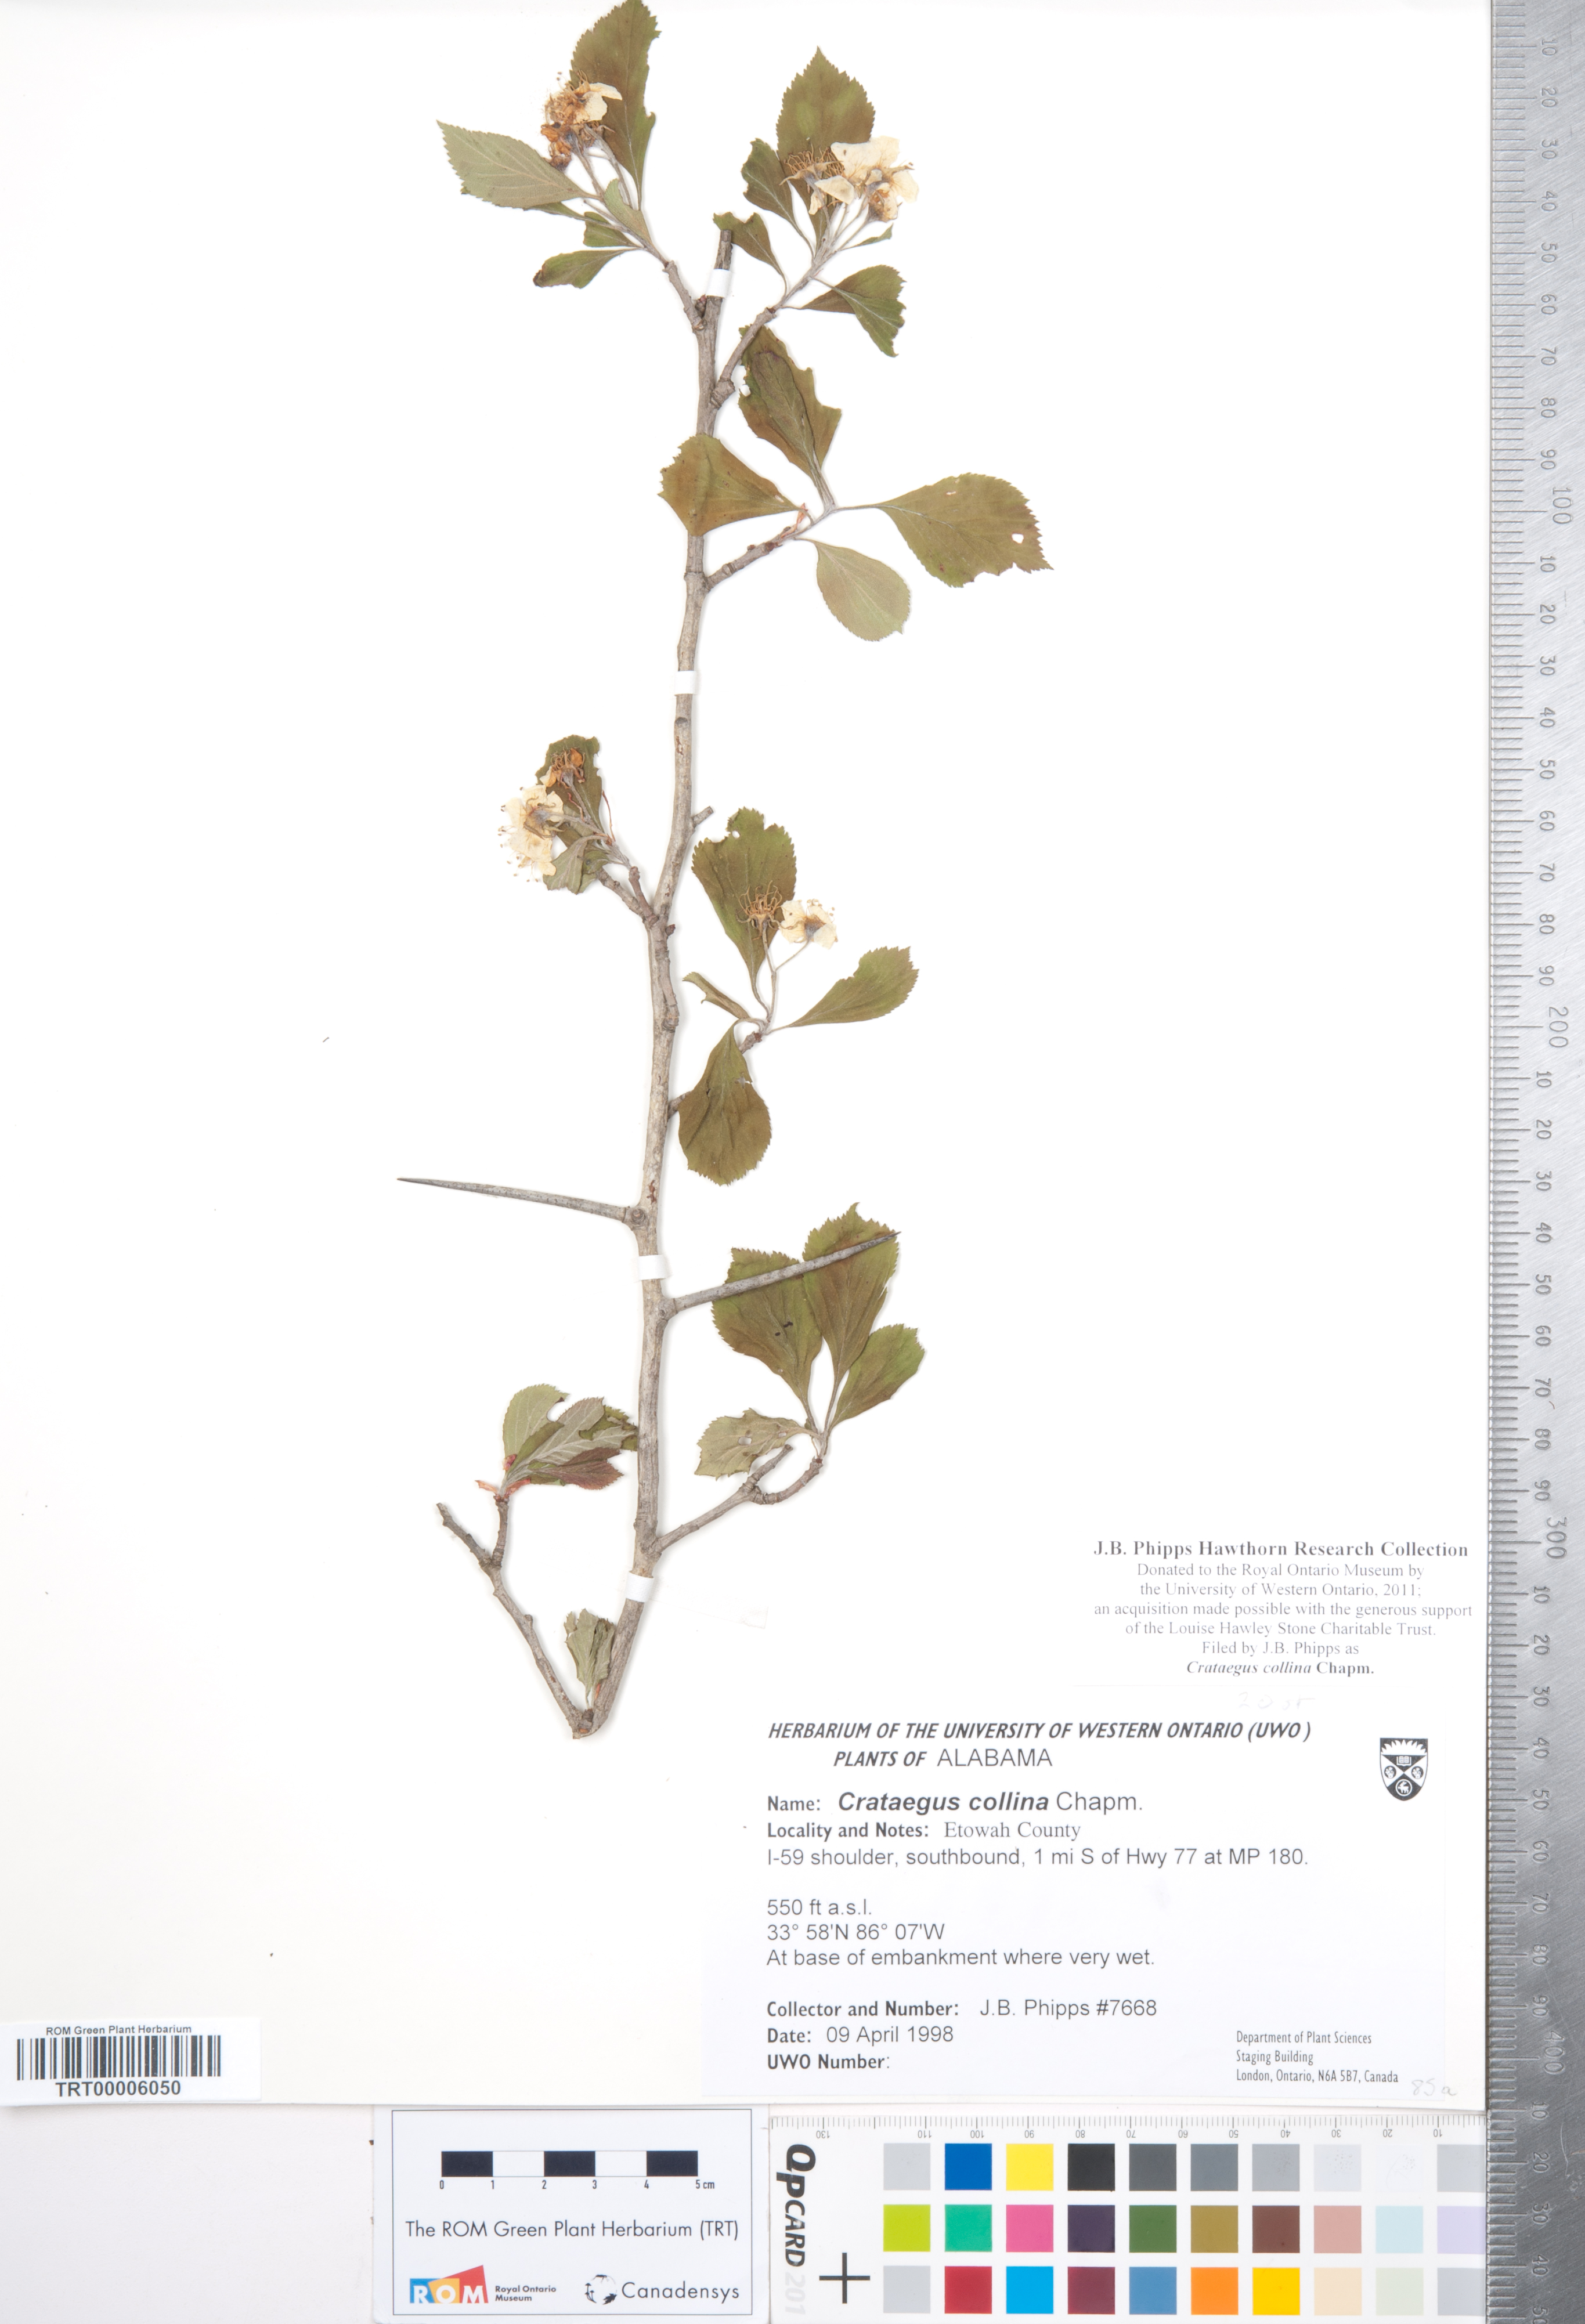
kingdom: Plantae
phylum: Tracheophyta
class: Magnoliopsida
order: Rosales
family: Rosaceae
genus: Crataegus
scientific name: Crataegus collina
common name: Hillside hawthorn
